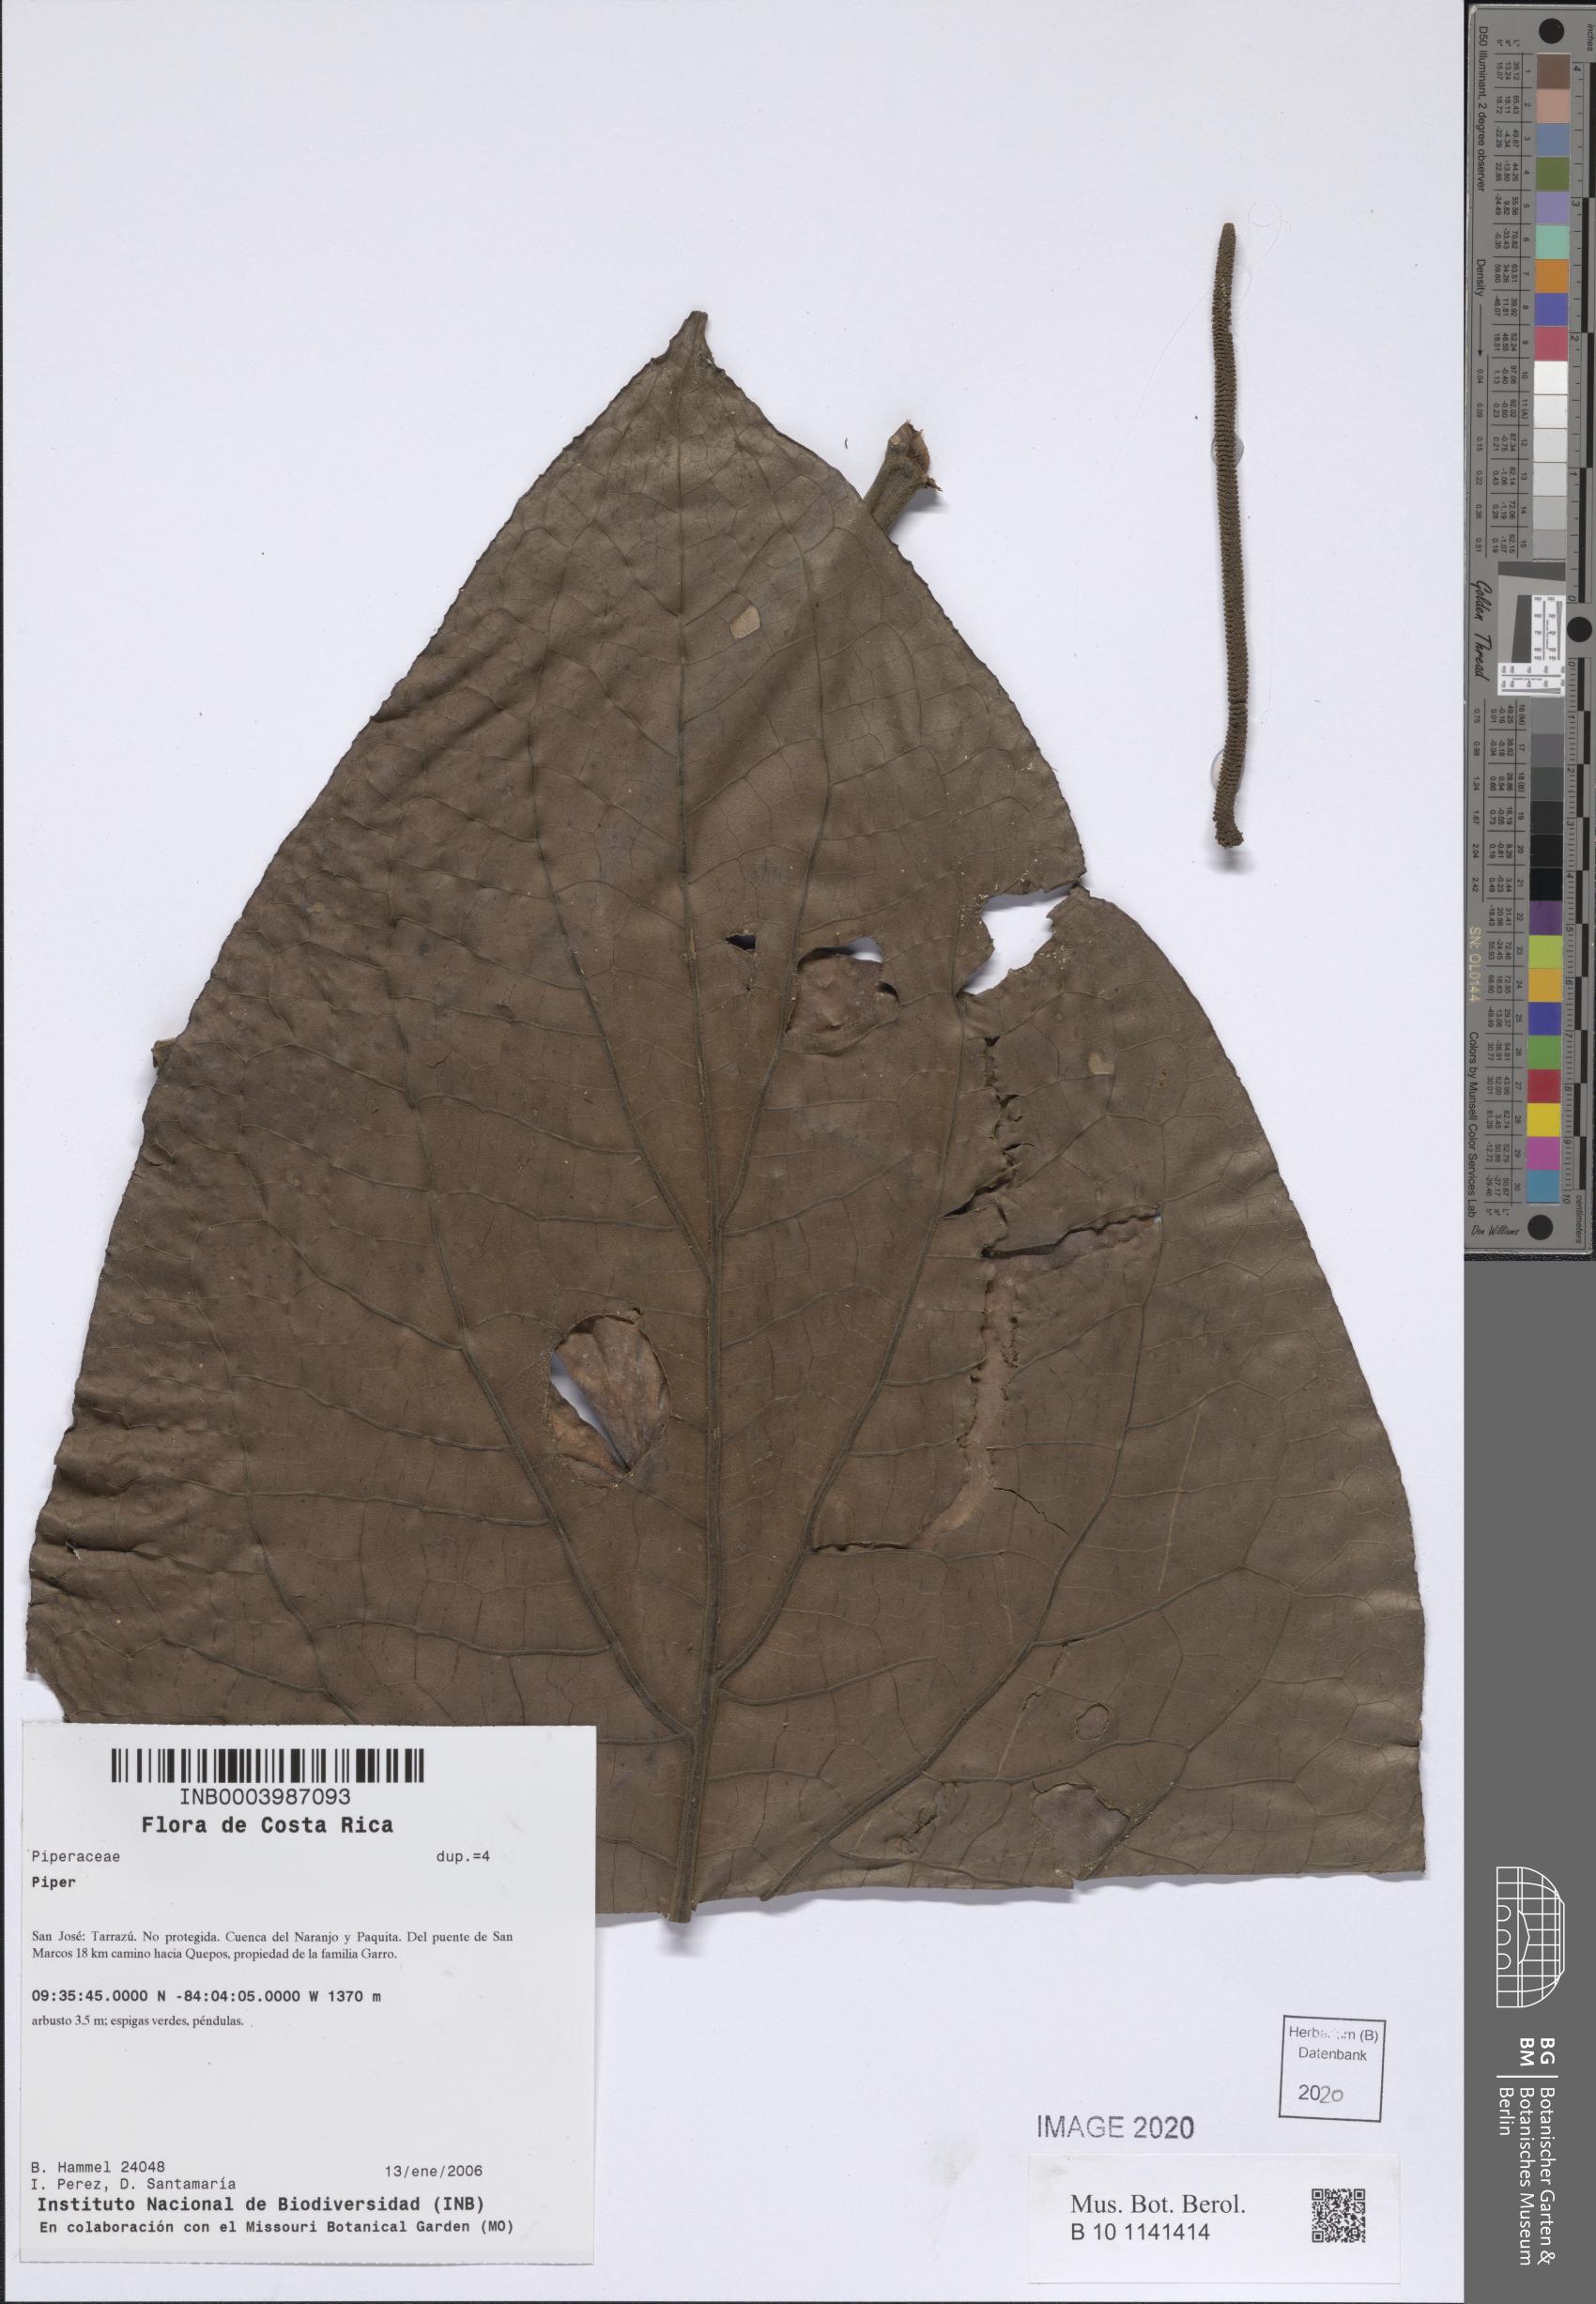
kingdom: Plantae
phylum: Tracheophyta
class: Magnoliopsida
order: Piperales
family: Piperaceae
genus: Piper
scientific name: Piper
